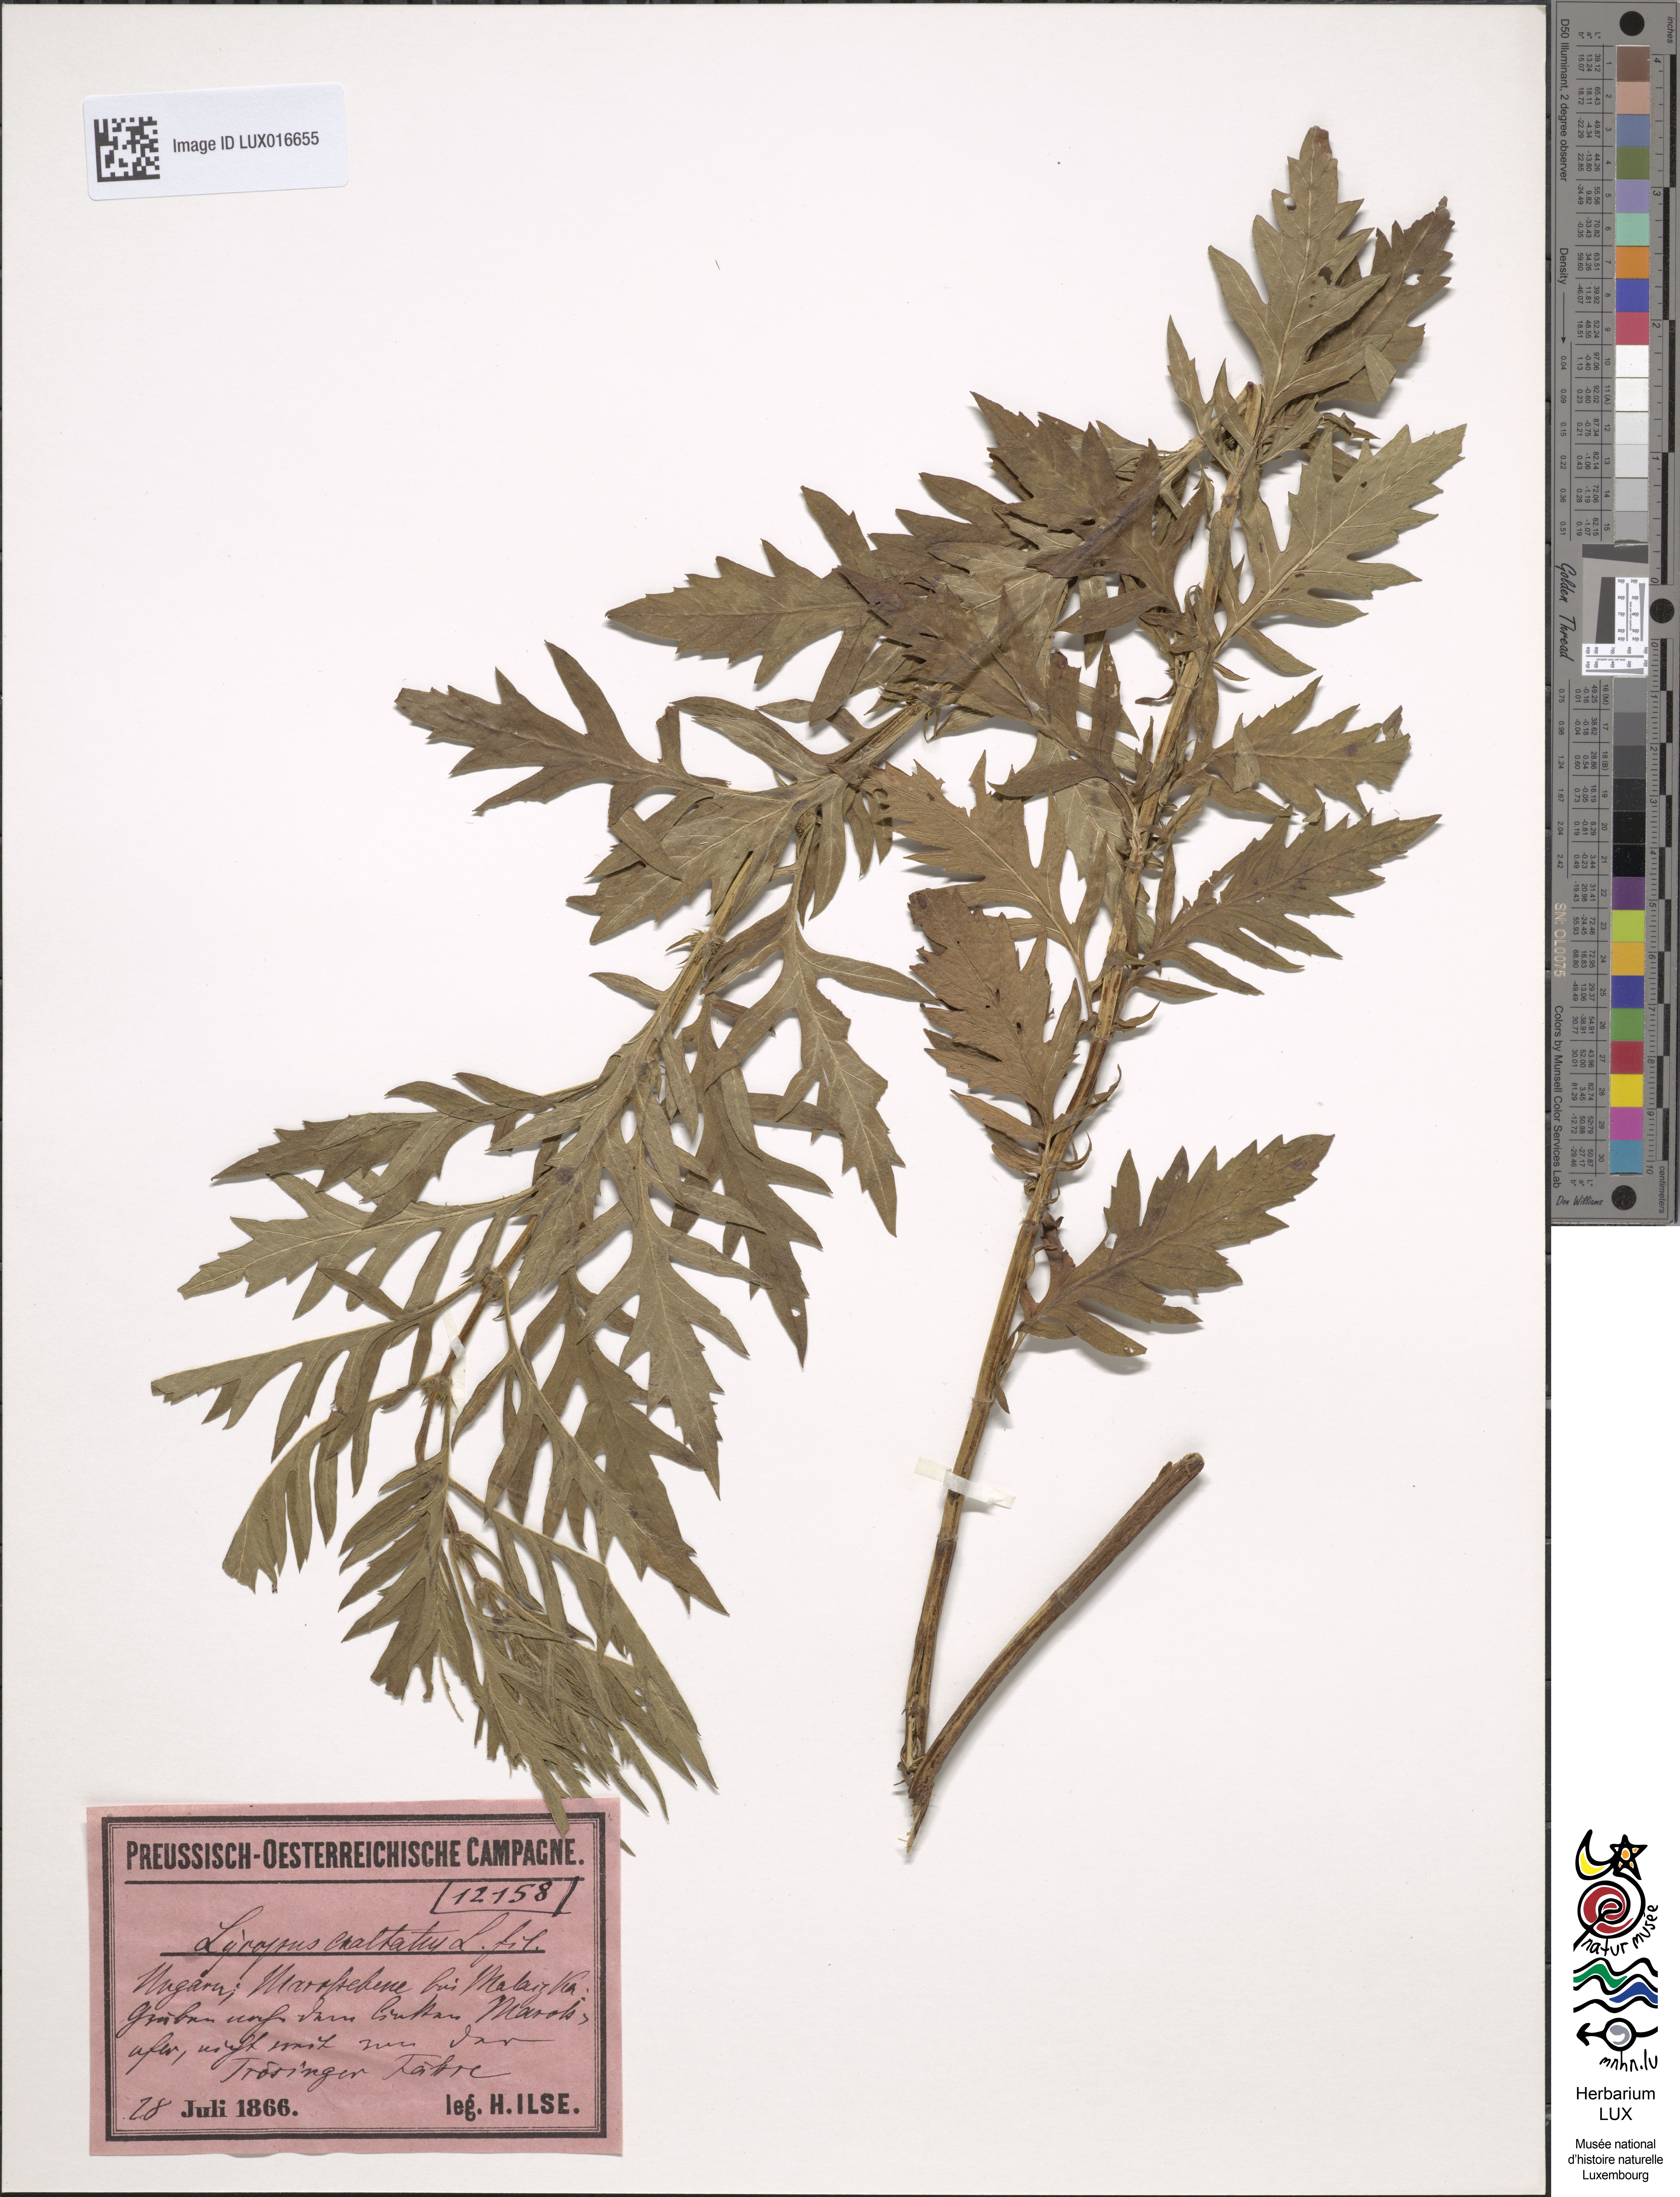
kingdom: Plantae
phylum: Tracheophyta
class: Magnoliopsida
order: Lamiales
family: Lamiaceae
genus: Lycopus
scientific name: Lycopus exaltatus
